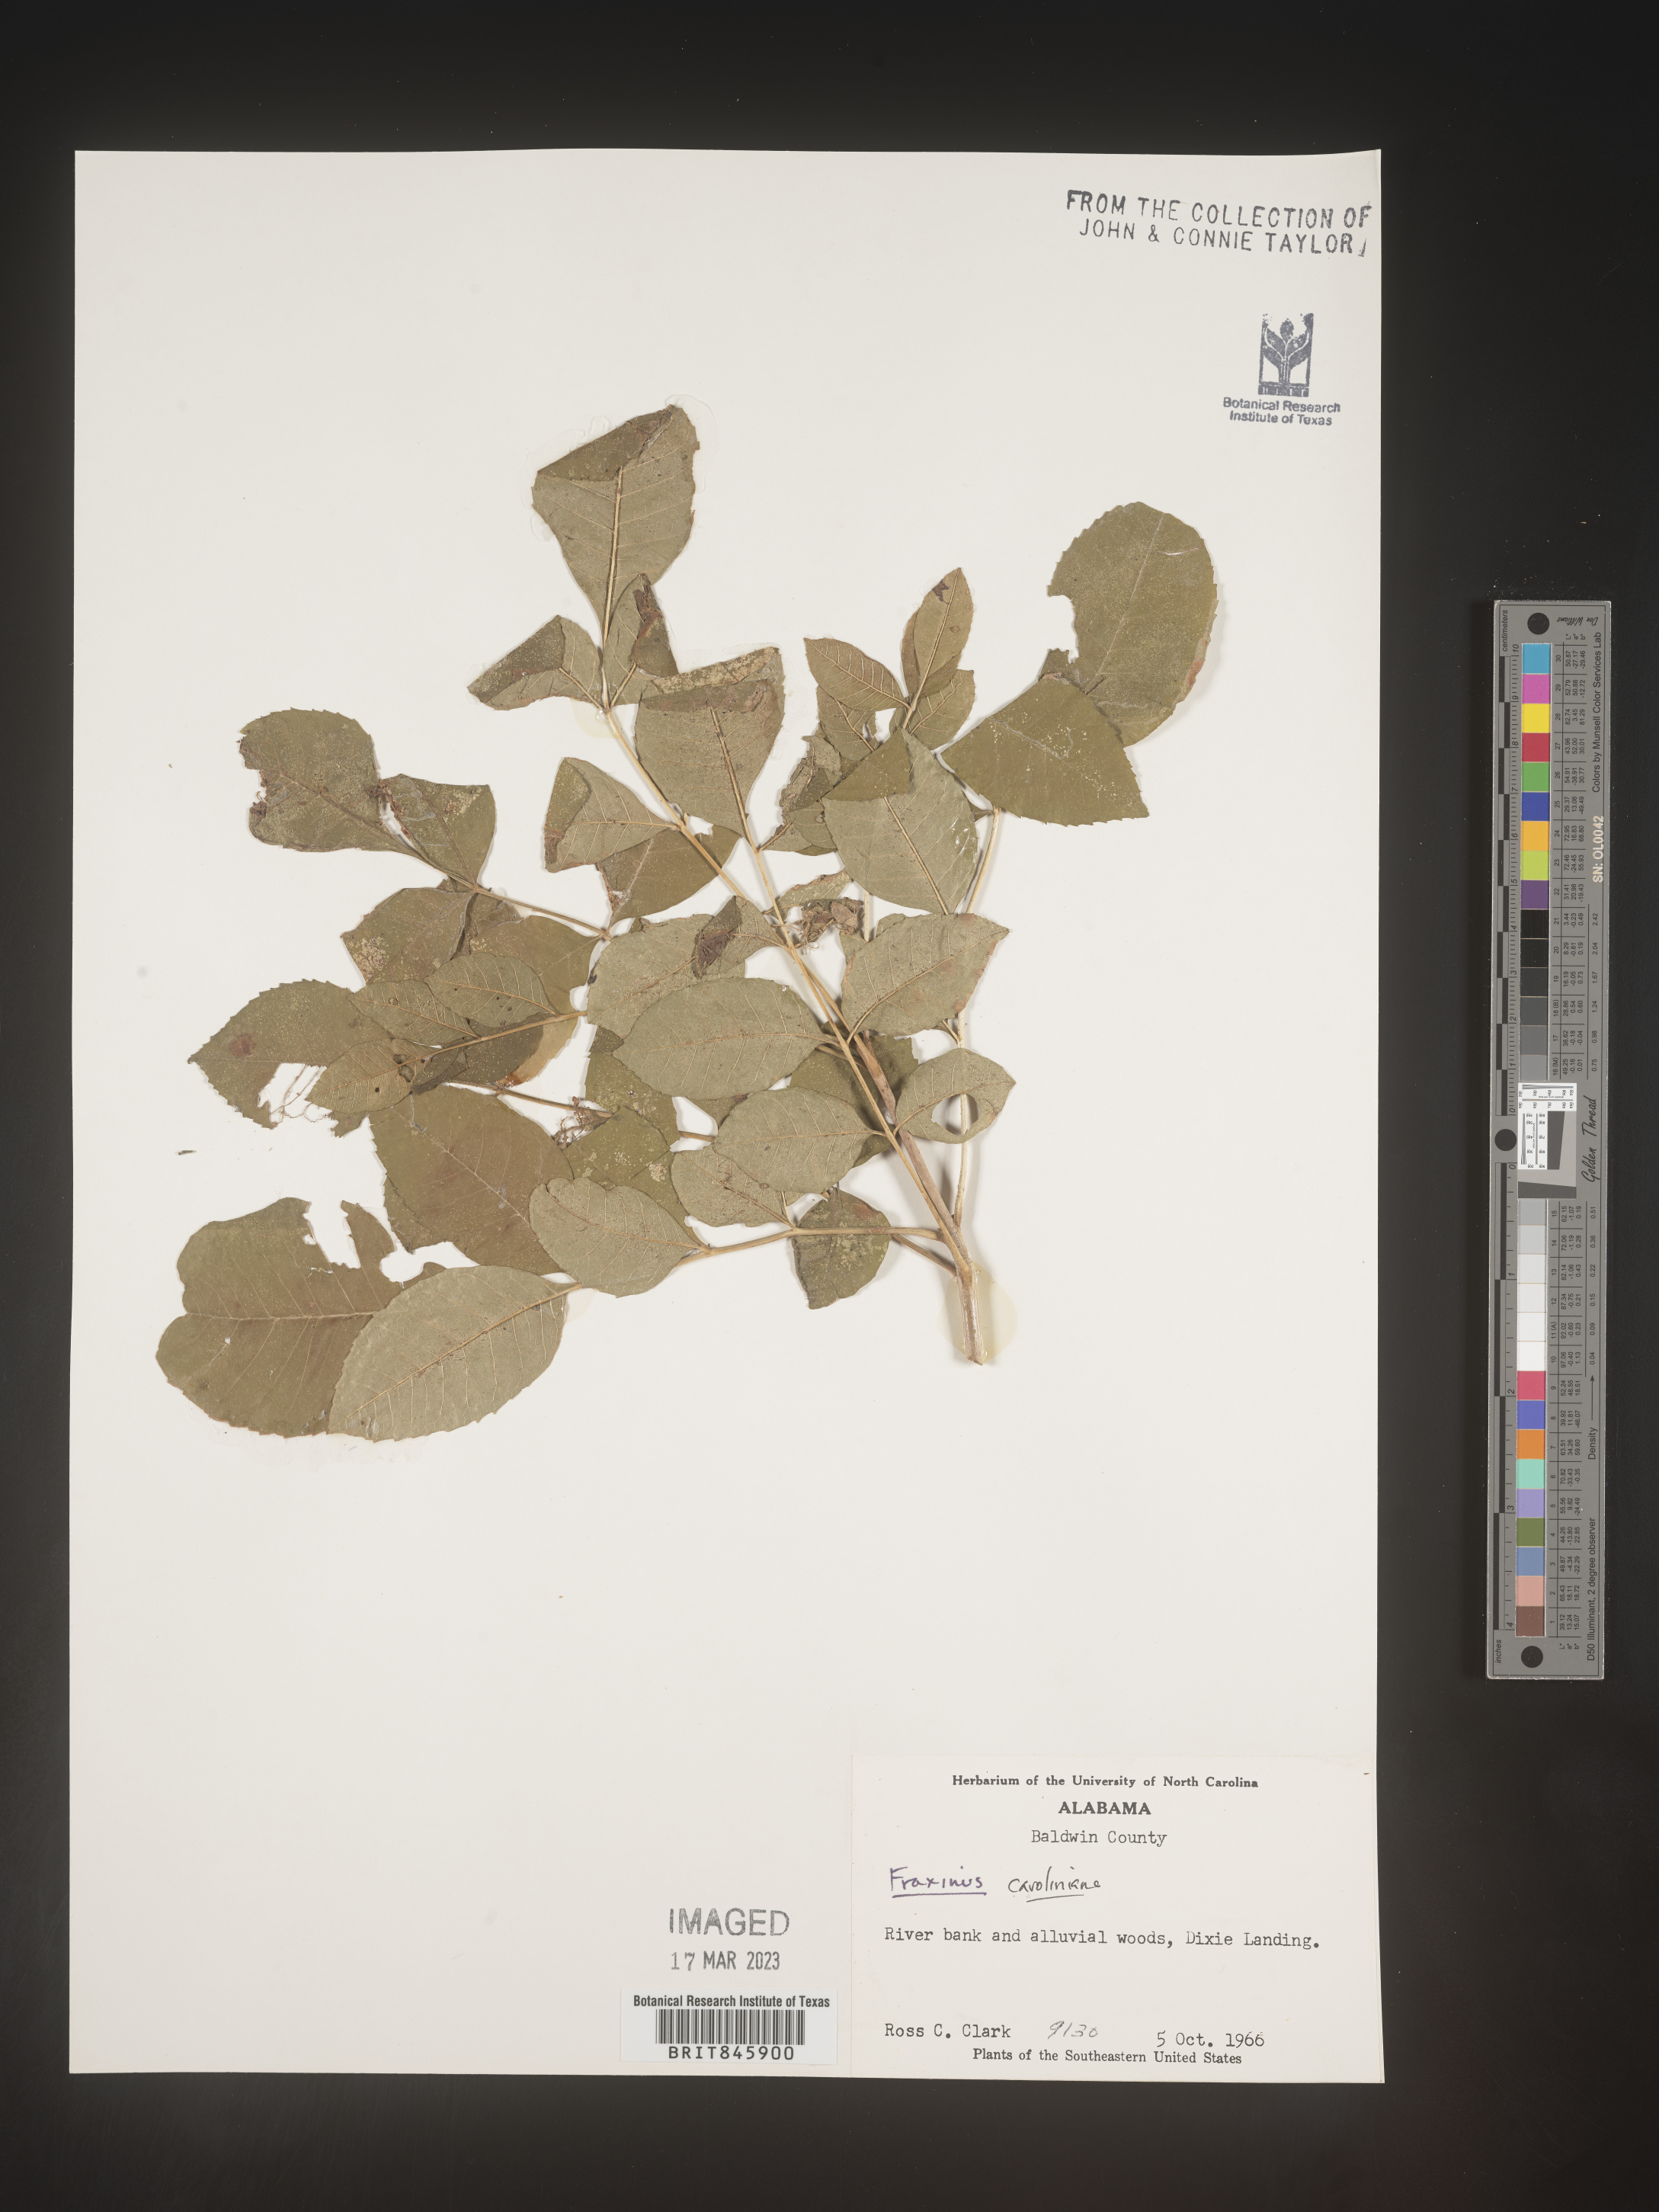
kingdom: Plantae
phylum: Tracheophyta
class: Magnoliopsida
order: Lamiales
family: Oleaceae
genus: Fraxinus
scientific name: Fraxinus caroliniana
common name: Carolina ash
